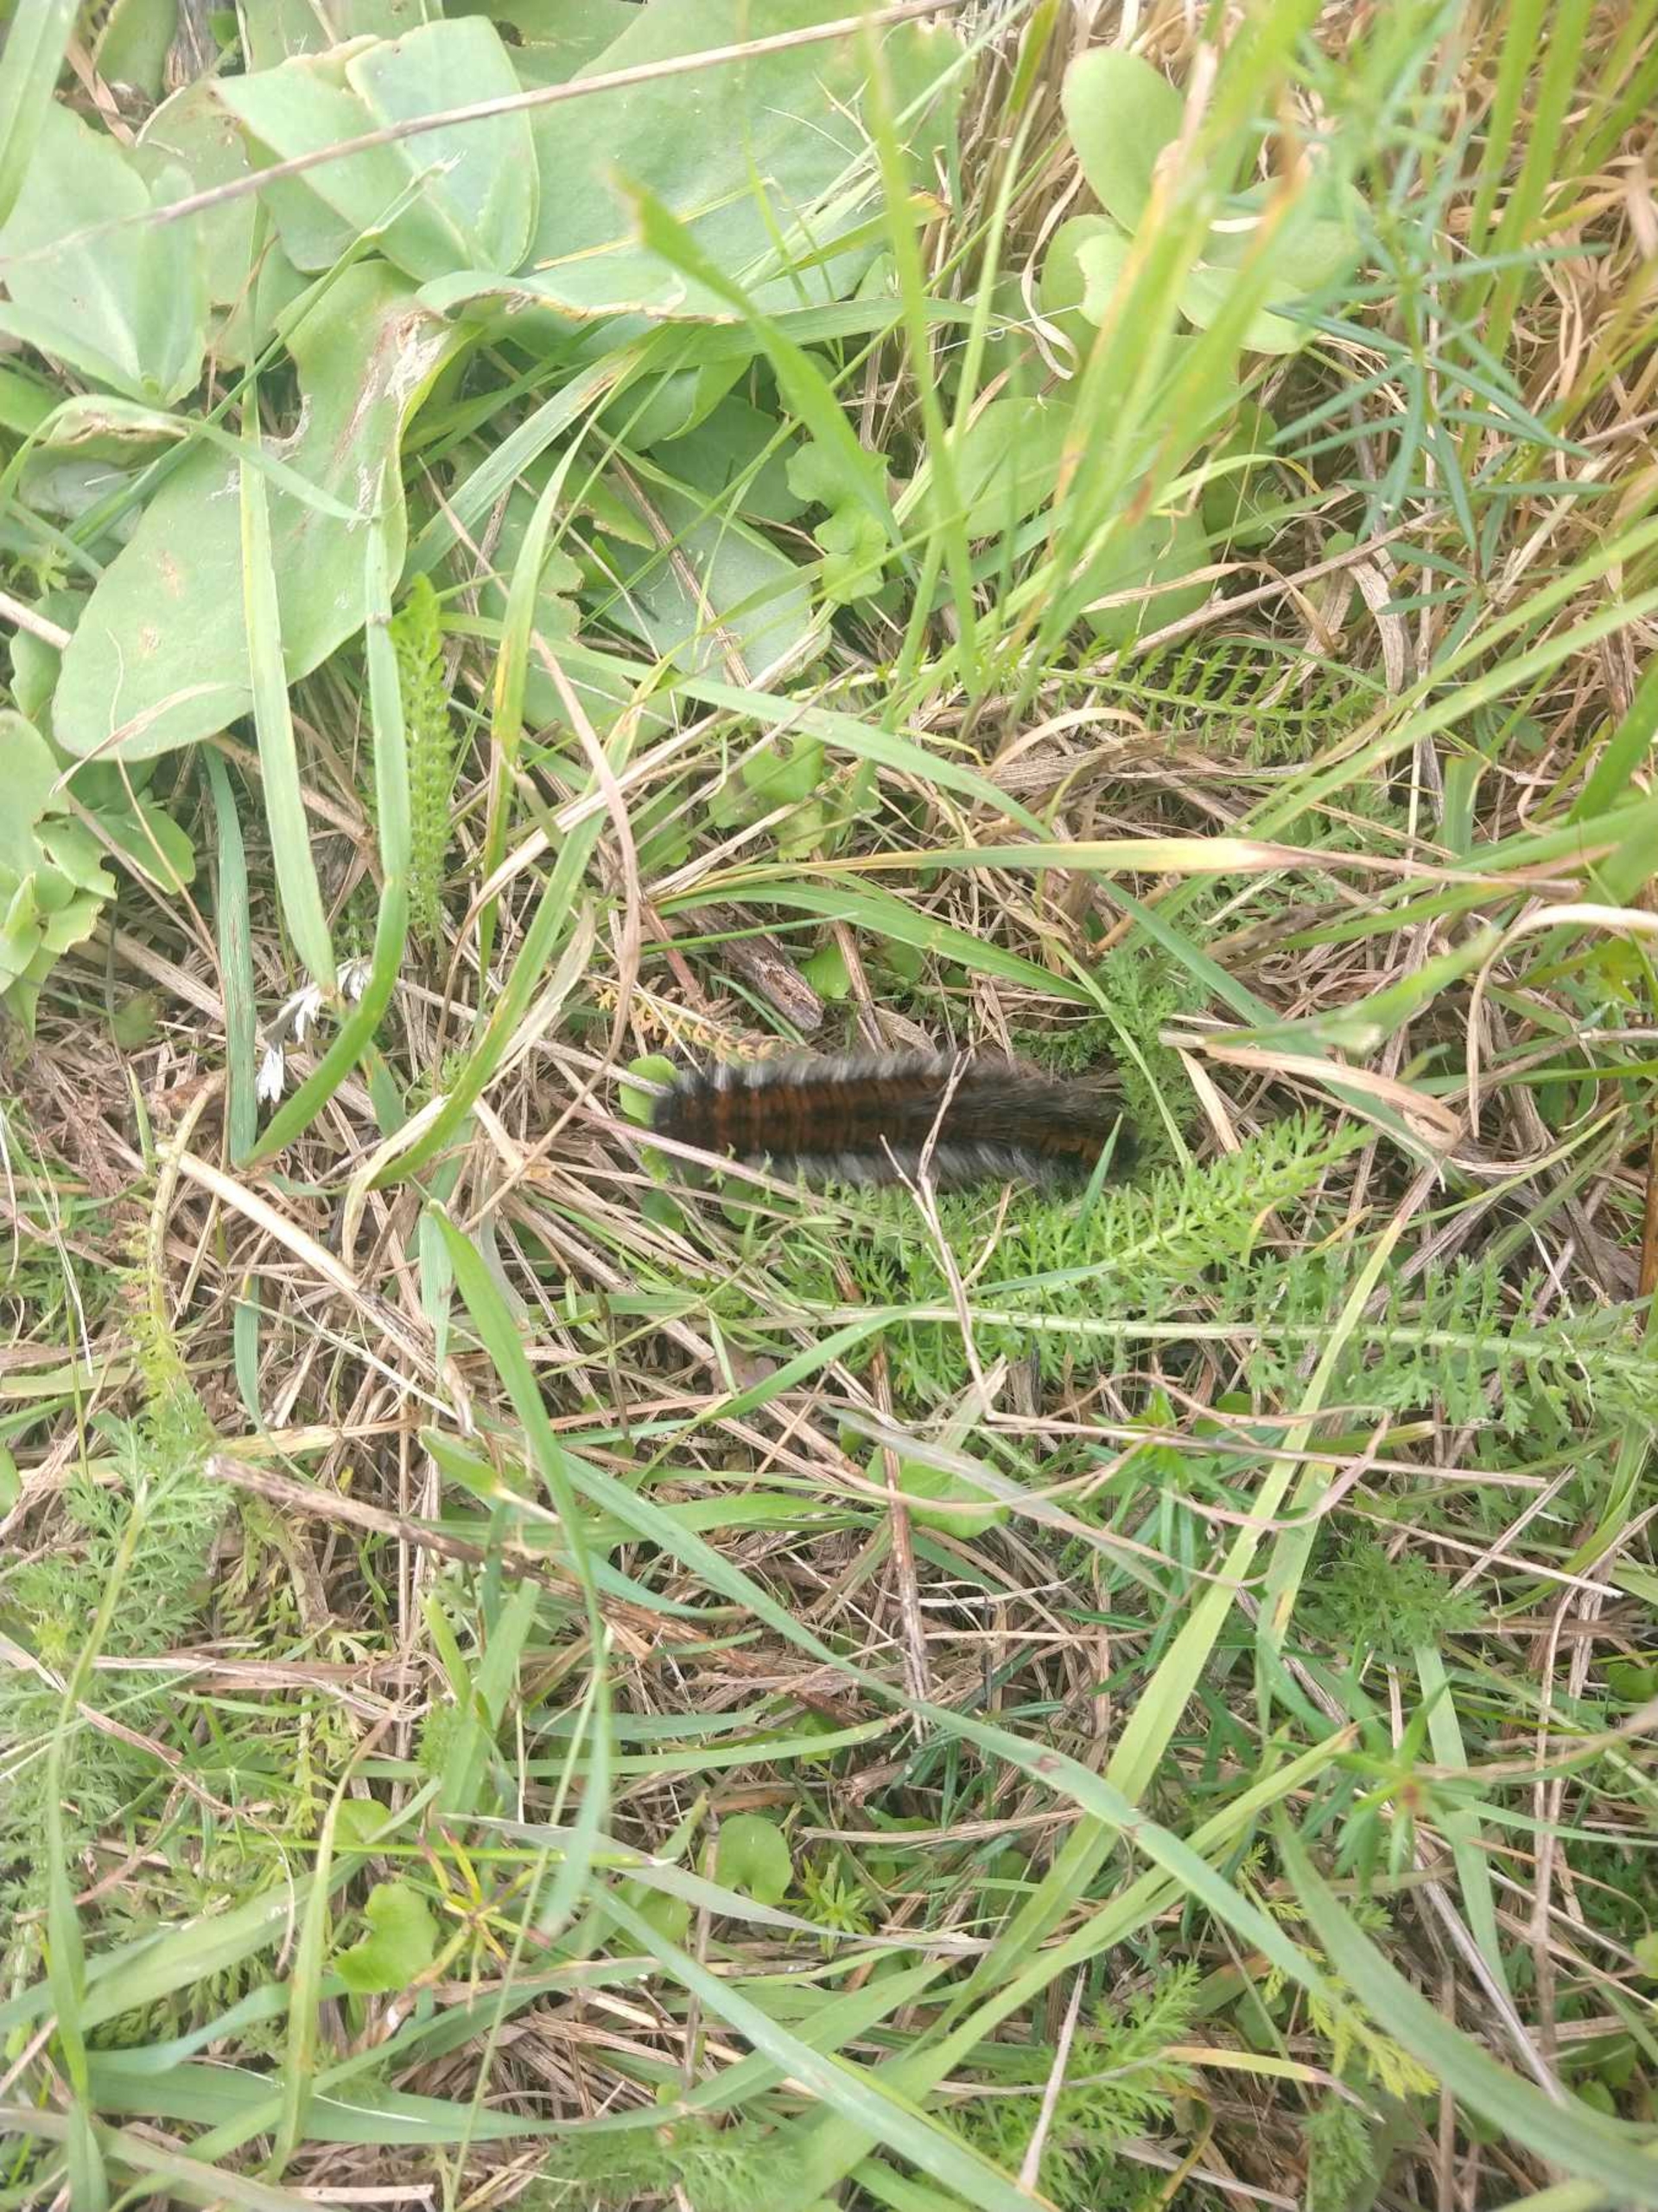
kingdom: Animalia
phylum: Arthropoda
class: Insecta
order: Lepidoptera
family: Lasiocampidae
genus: Macrothylacia
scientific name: Macrothylacia rubi
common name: Brombærspinder
